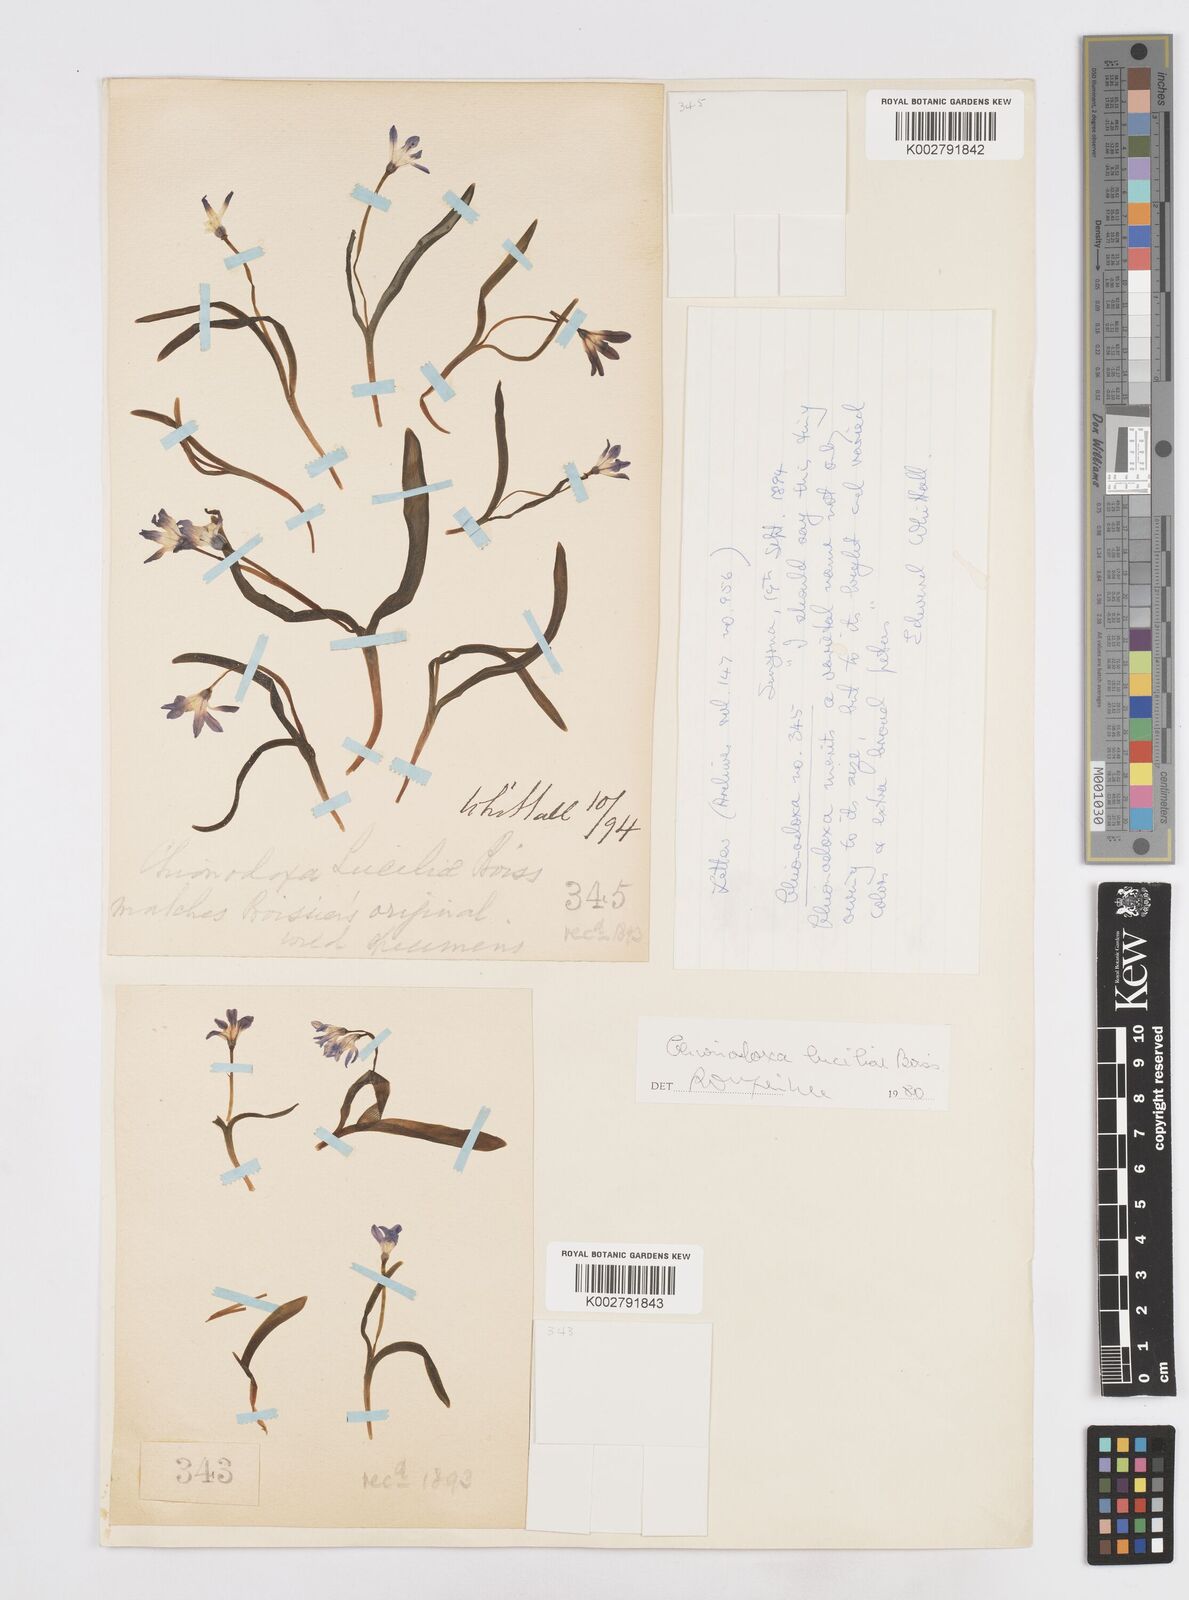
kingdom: Plantae
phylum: Tracheophyta
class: Liliopsida
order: Asparagales
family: Asparagaceae
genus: Scilla
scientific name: Scilla luciliae
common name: Boissier's glory-of-the-snow
